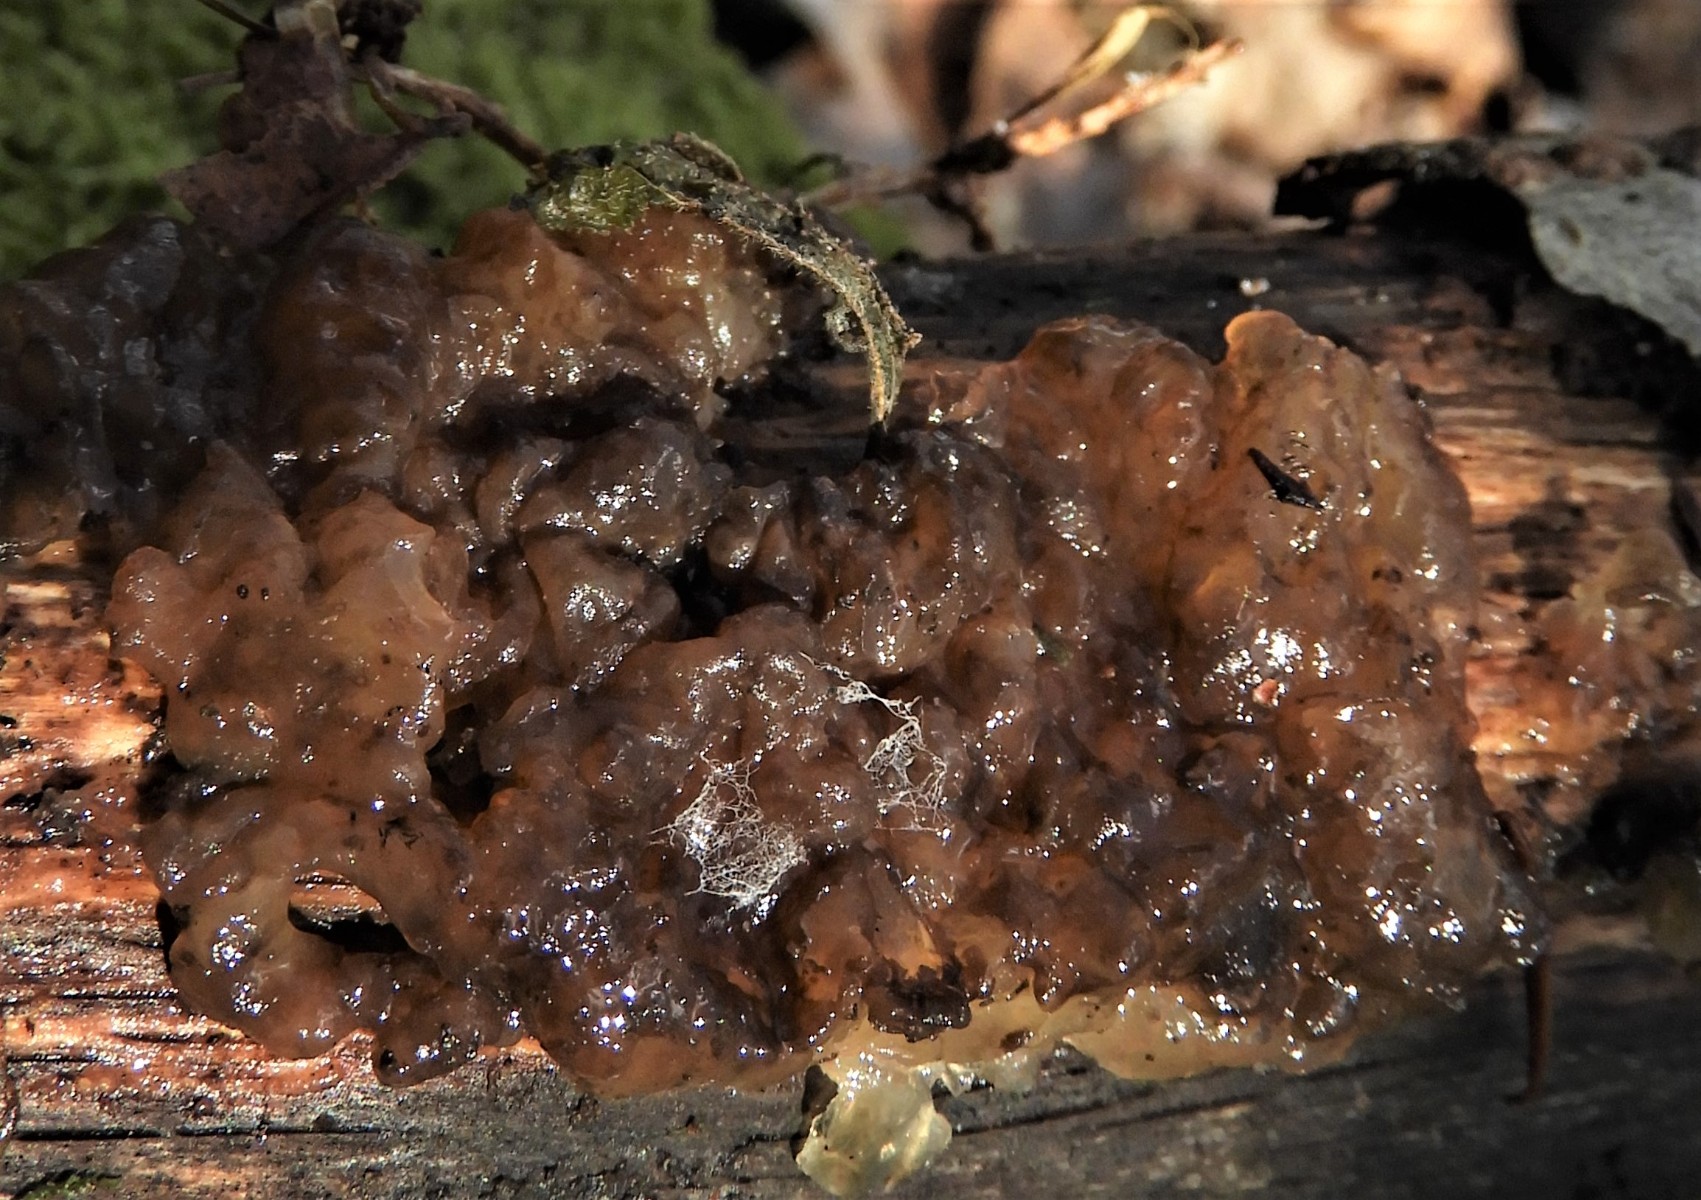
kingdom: Fungi
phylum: Basidiomycota
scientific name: Basidiomycota
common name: basidiesvampe
